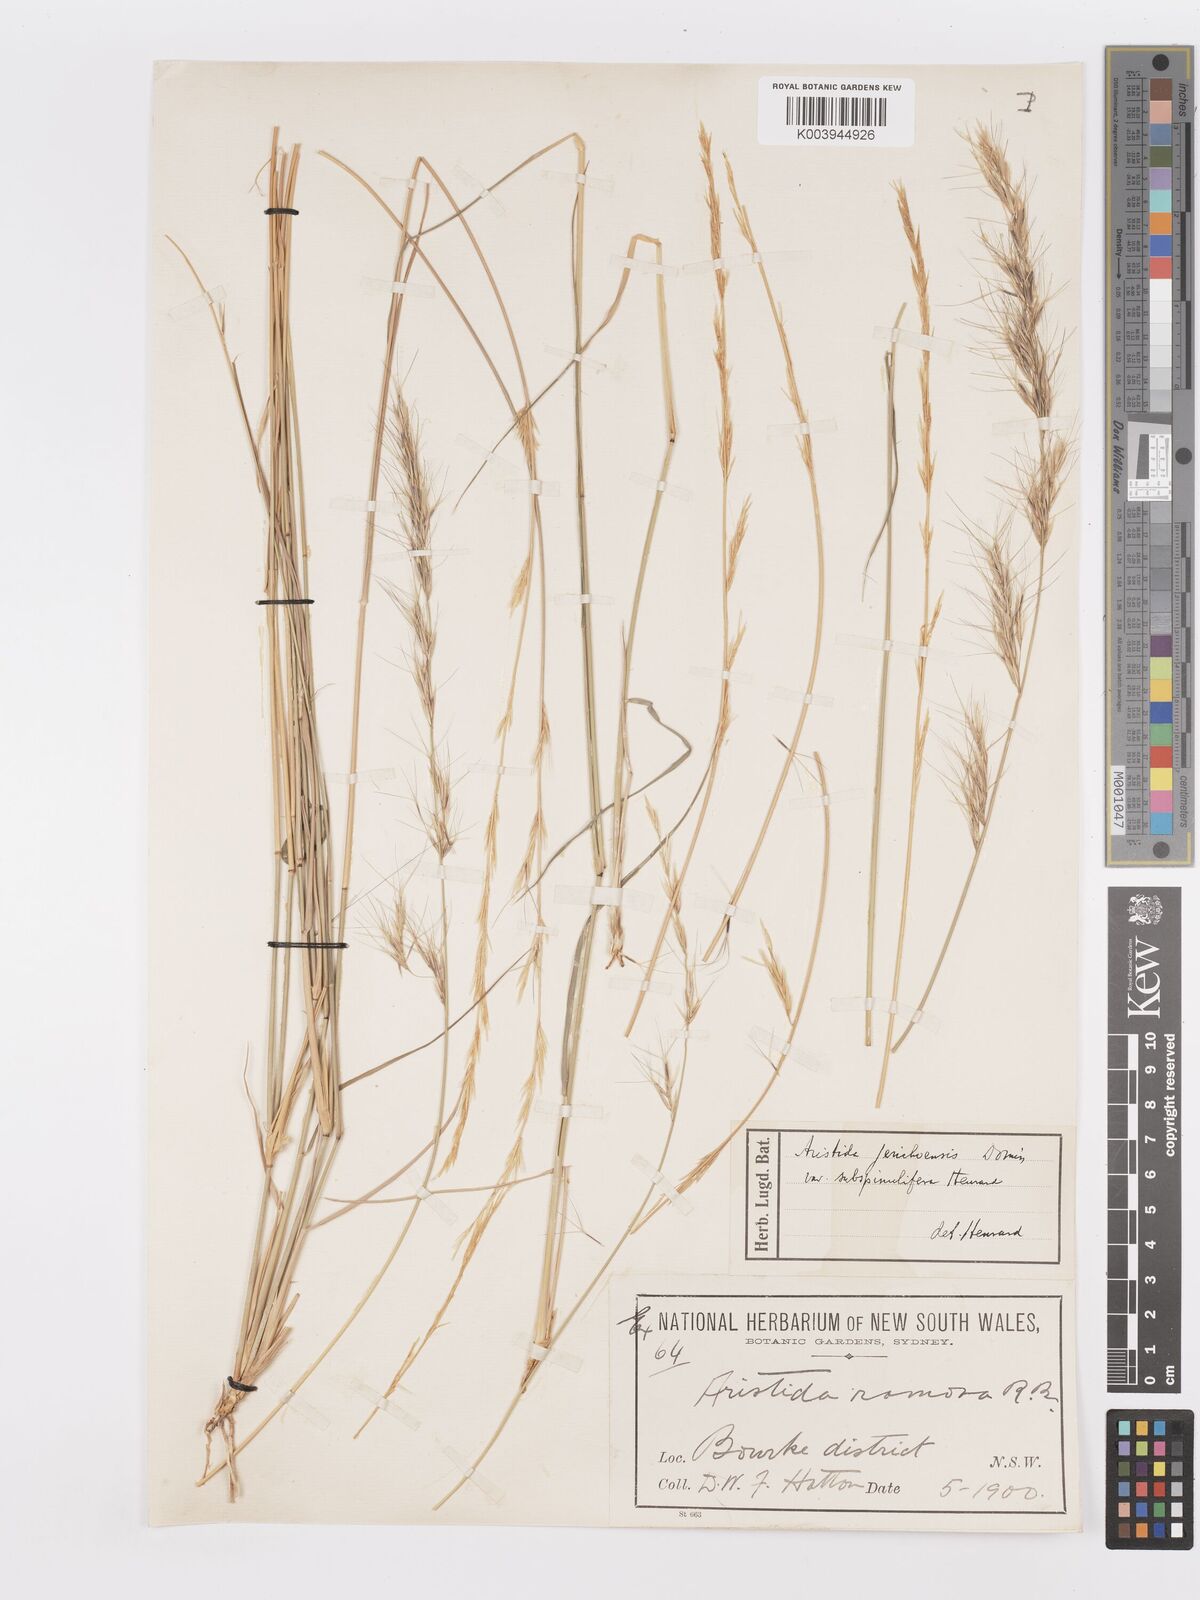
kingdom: Plantae
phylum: Tracheophyta
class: Liliopsida
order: Poales
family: Poaceae
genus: Aristida
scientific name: Aristida jerichoensis
